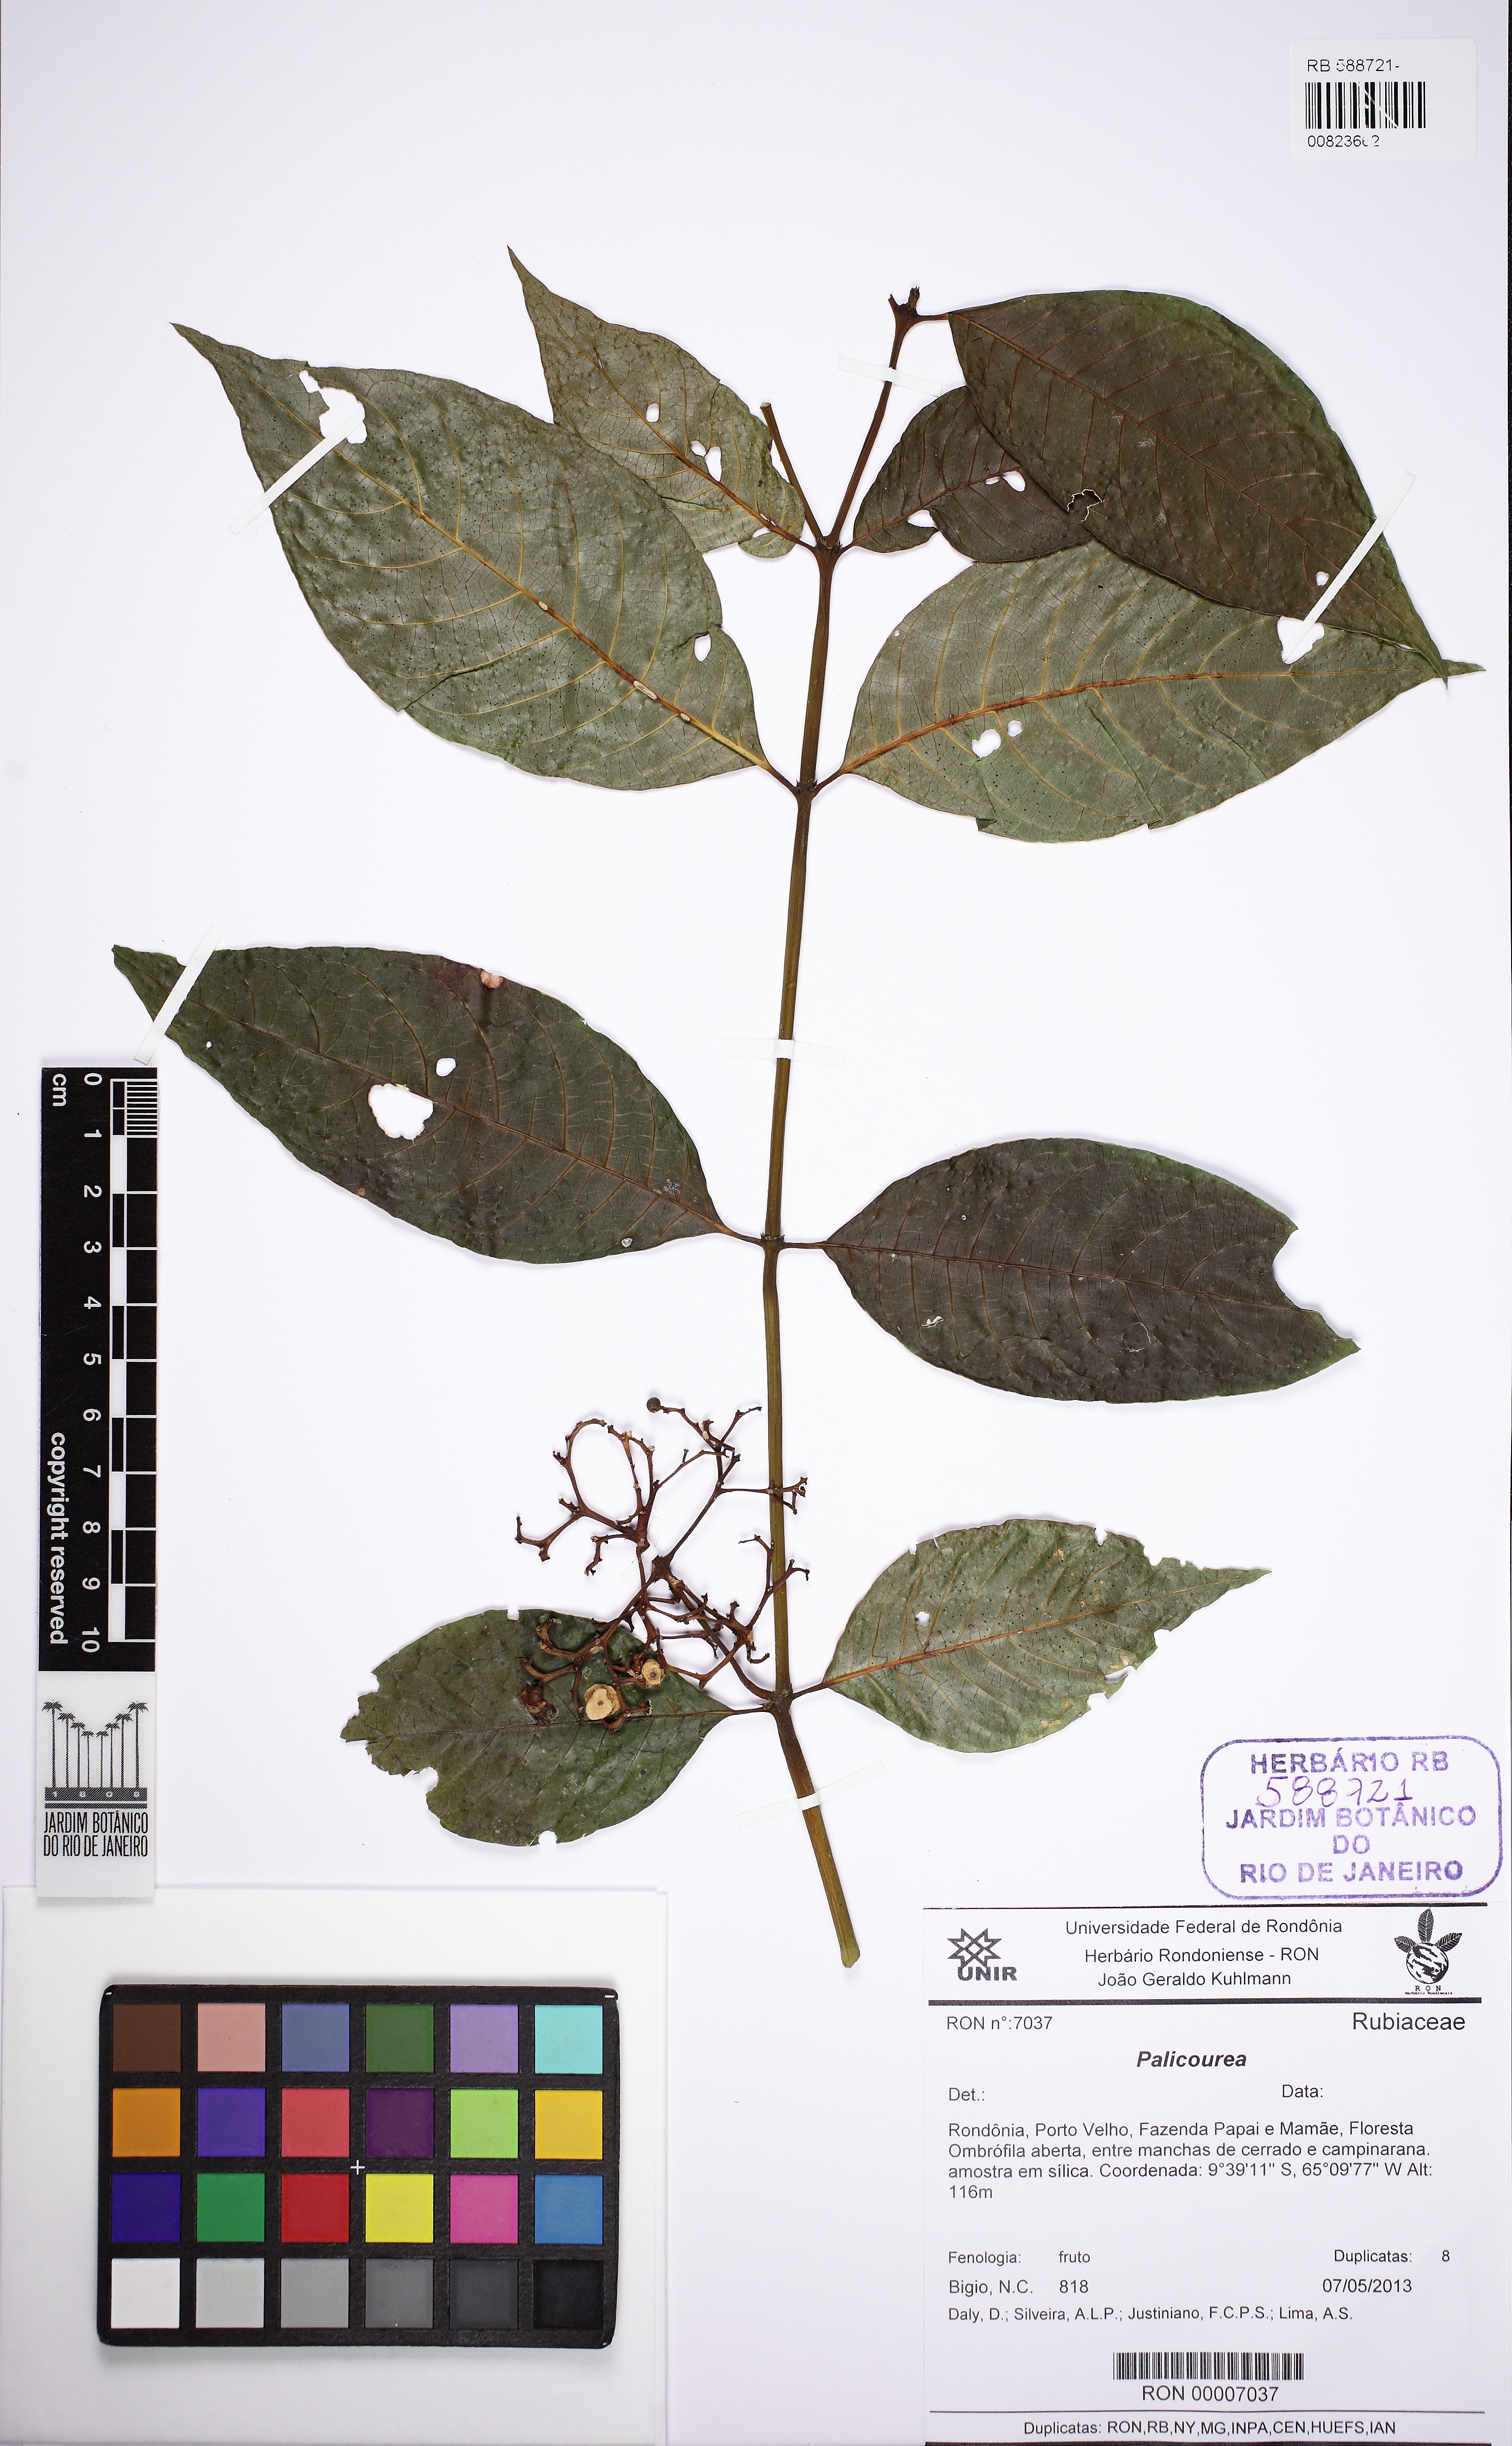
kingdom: Plantae
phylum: Tracheophyta
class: Magnoliopsida
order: Gentianales
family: Rubiaceae
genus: Palicourea
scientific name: Palicourea
